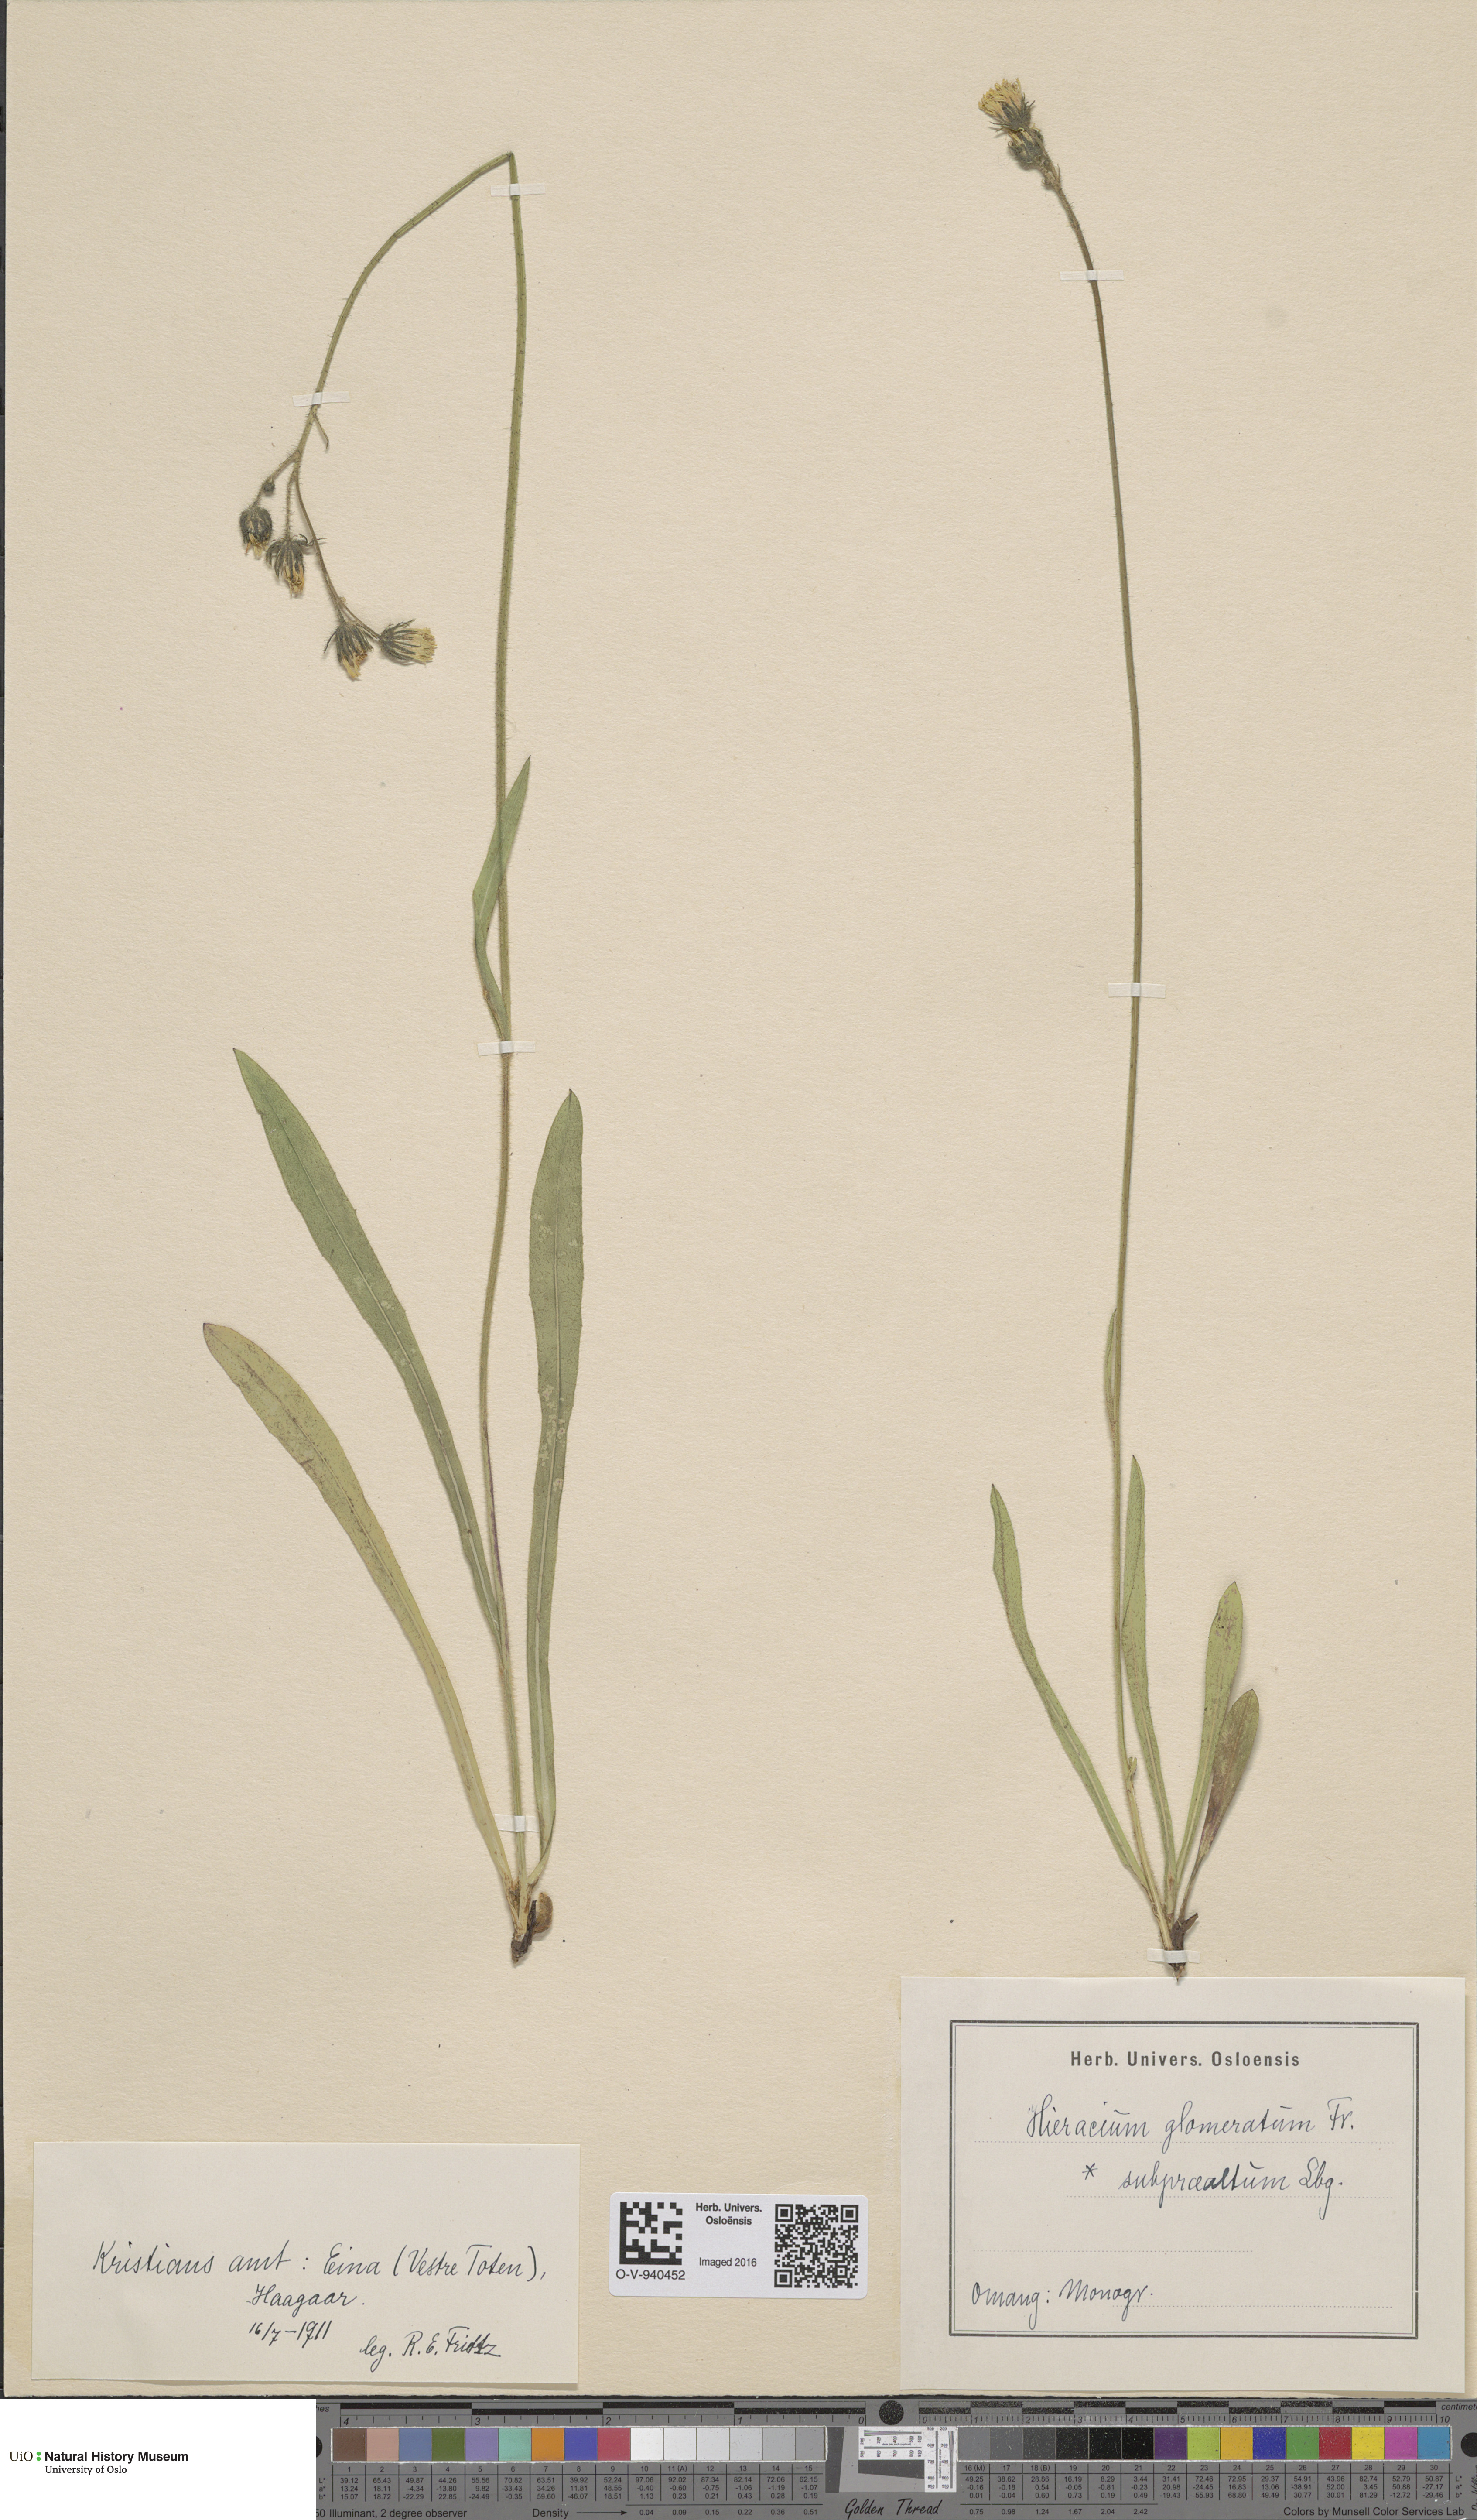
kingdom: Plantae
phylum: Tracheophyta
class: Magnoliopsida
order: Asterales
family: Asteraceae
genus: Pilosella
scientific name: Pilosella glomerata
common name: Queen devil hawkweed
